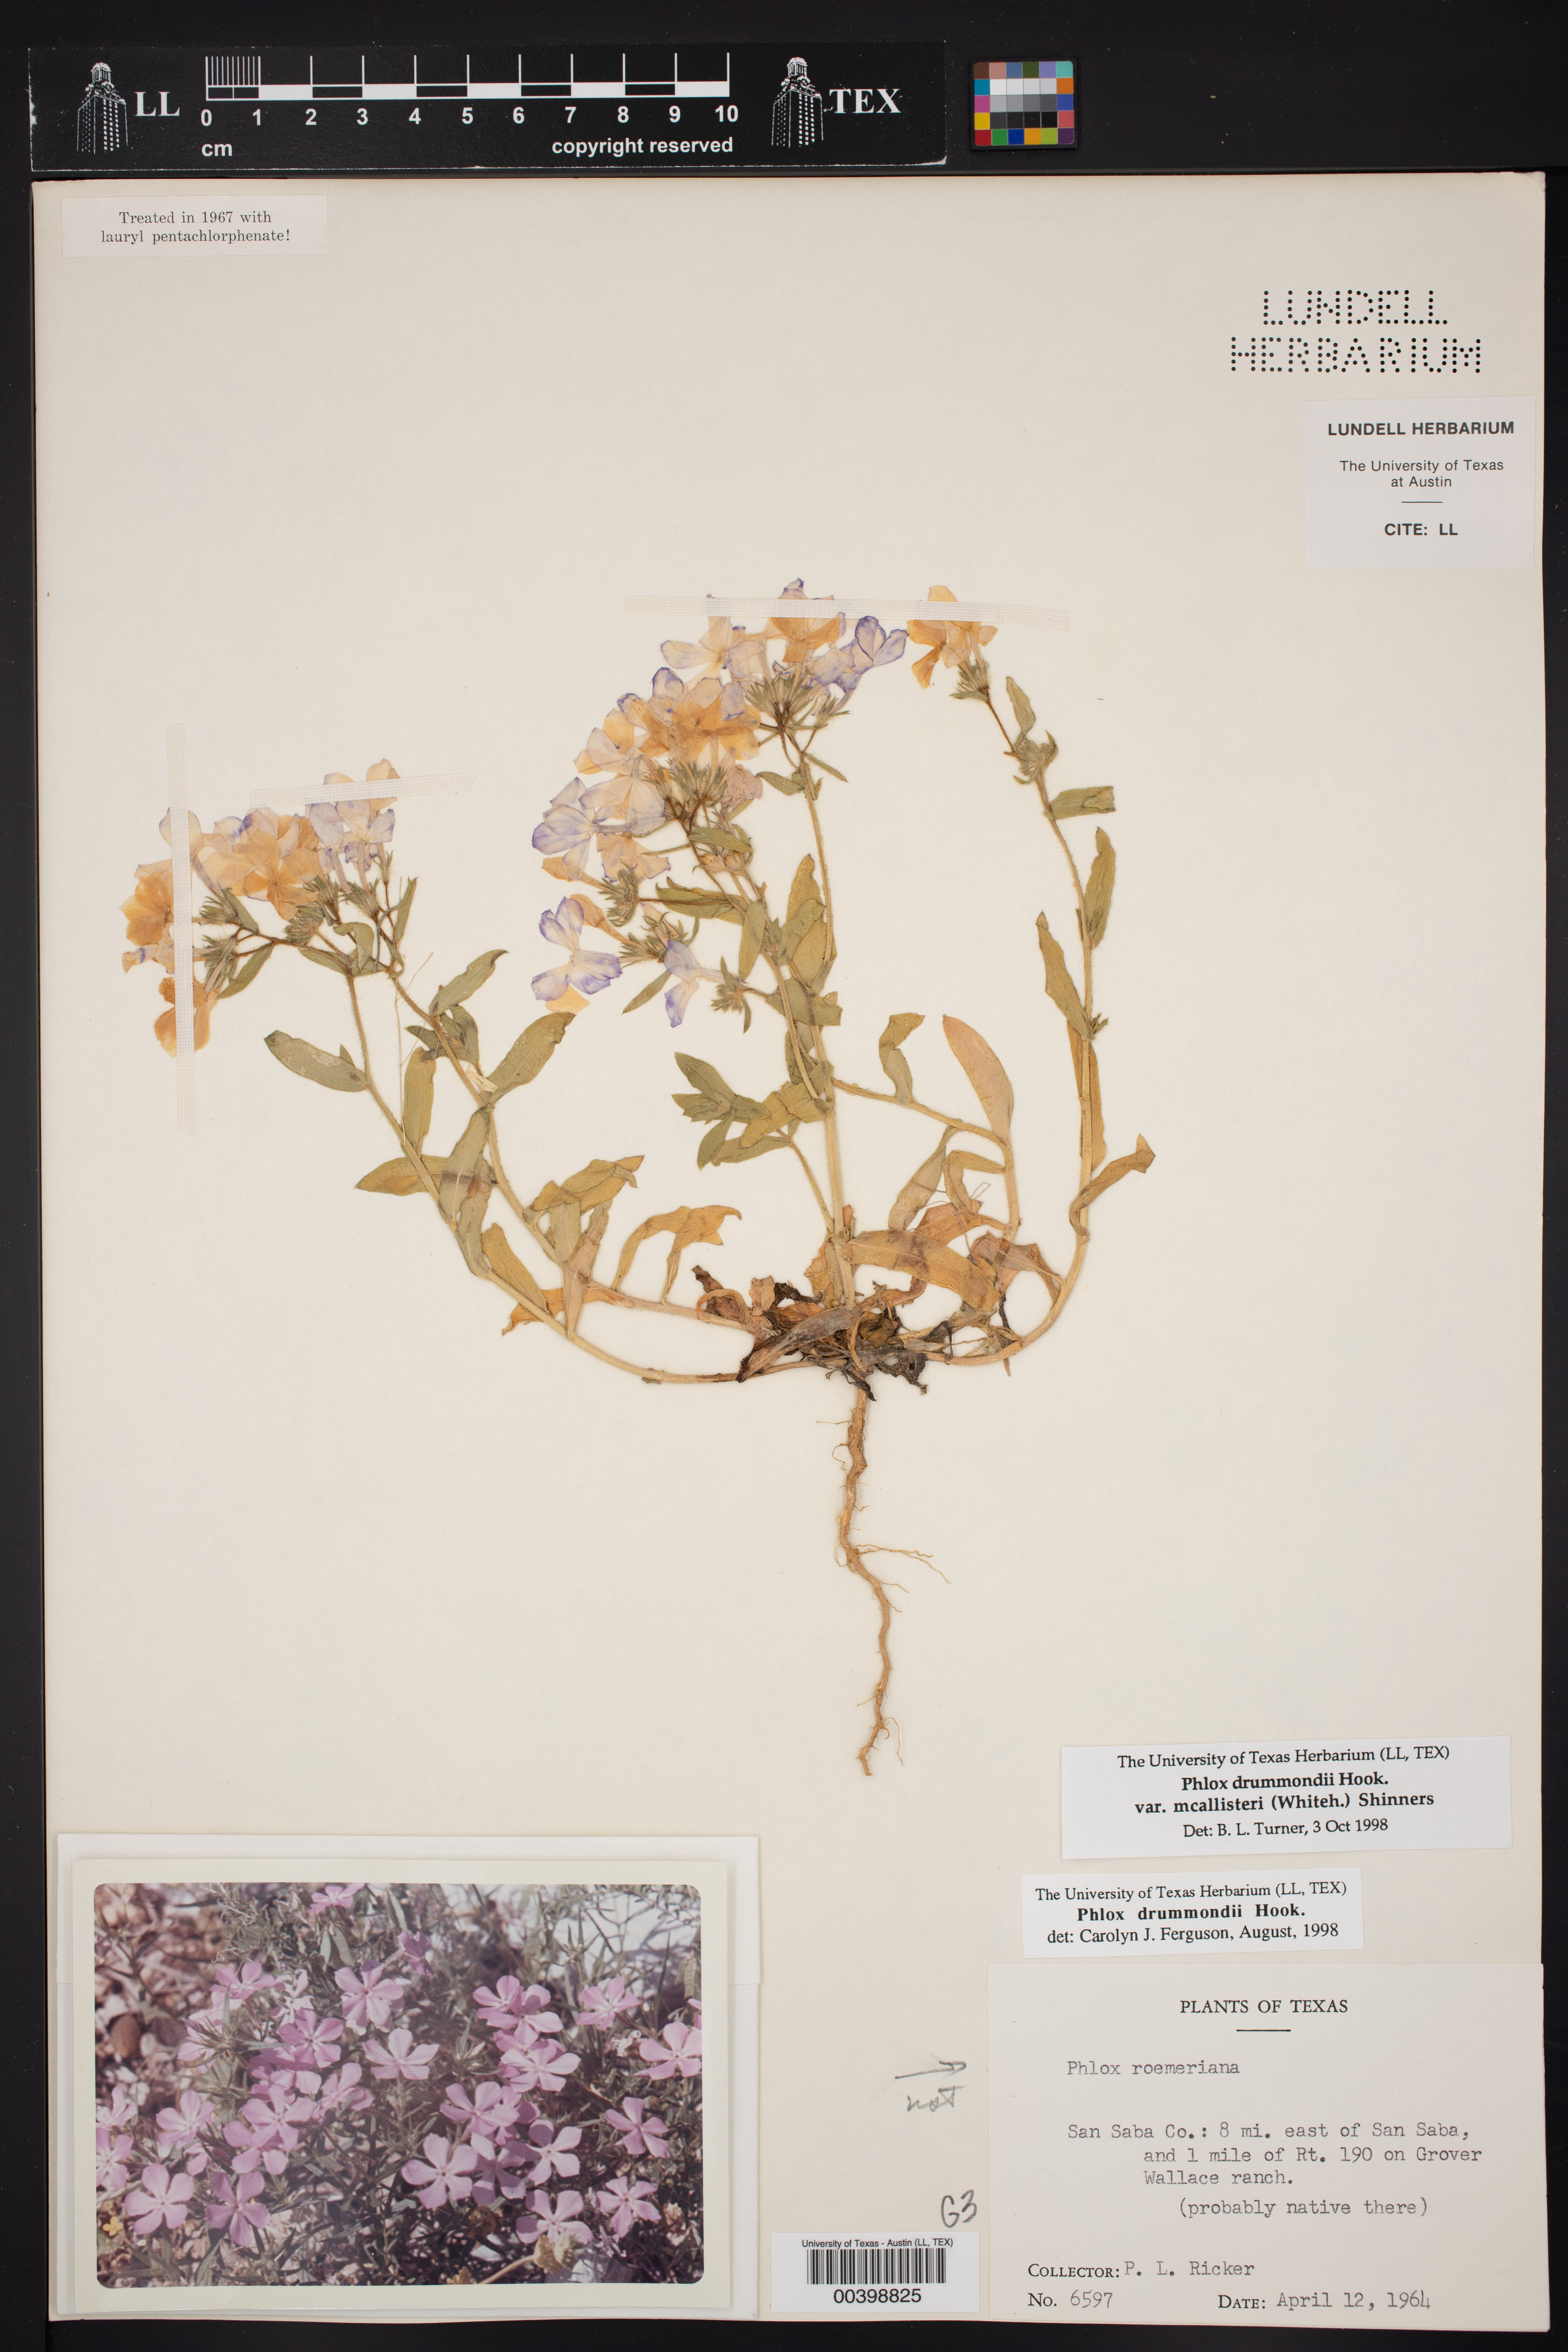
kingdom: Plantae
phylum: Tracheophyta
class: Magnoliopsida
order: Ericales
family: Polemoniaceae
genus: Phlox
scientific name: Phlox drummondii
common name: Drummond's phlox
